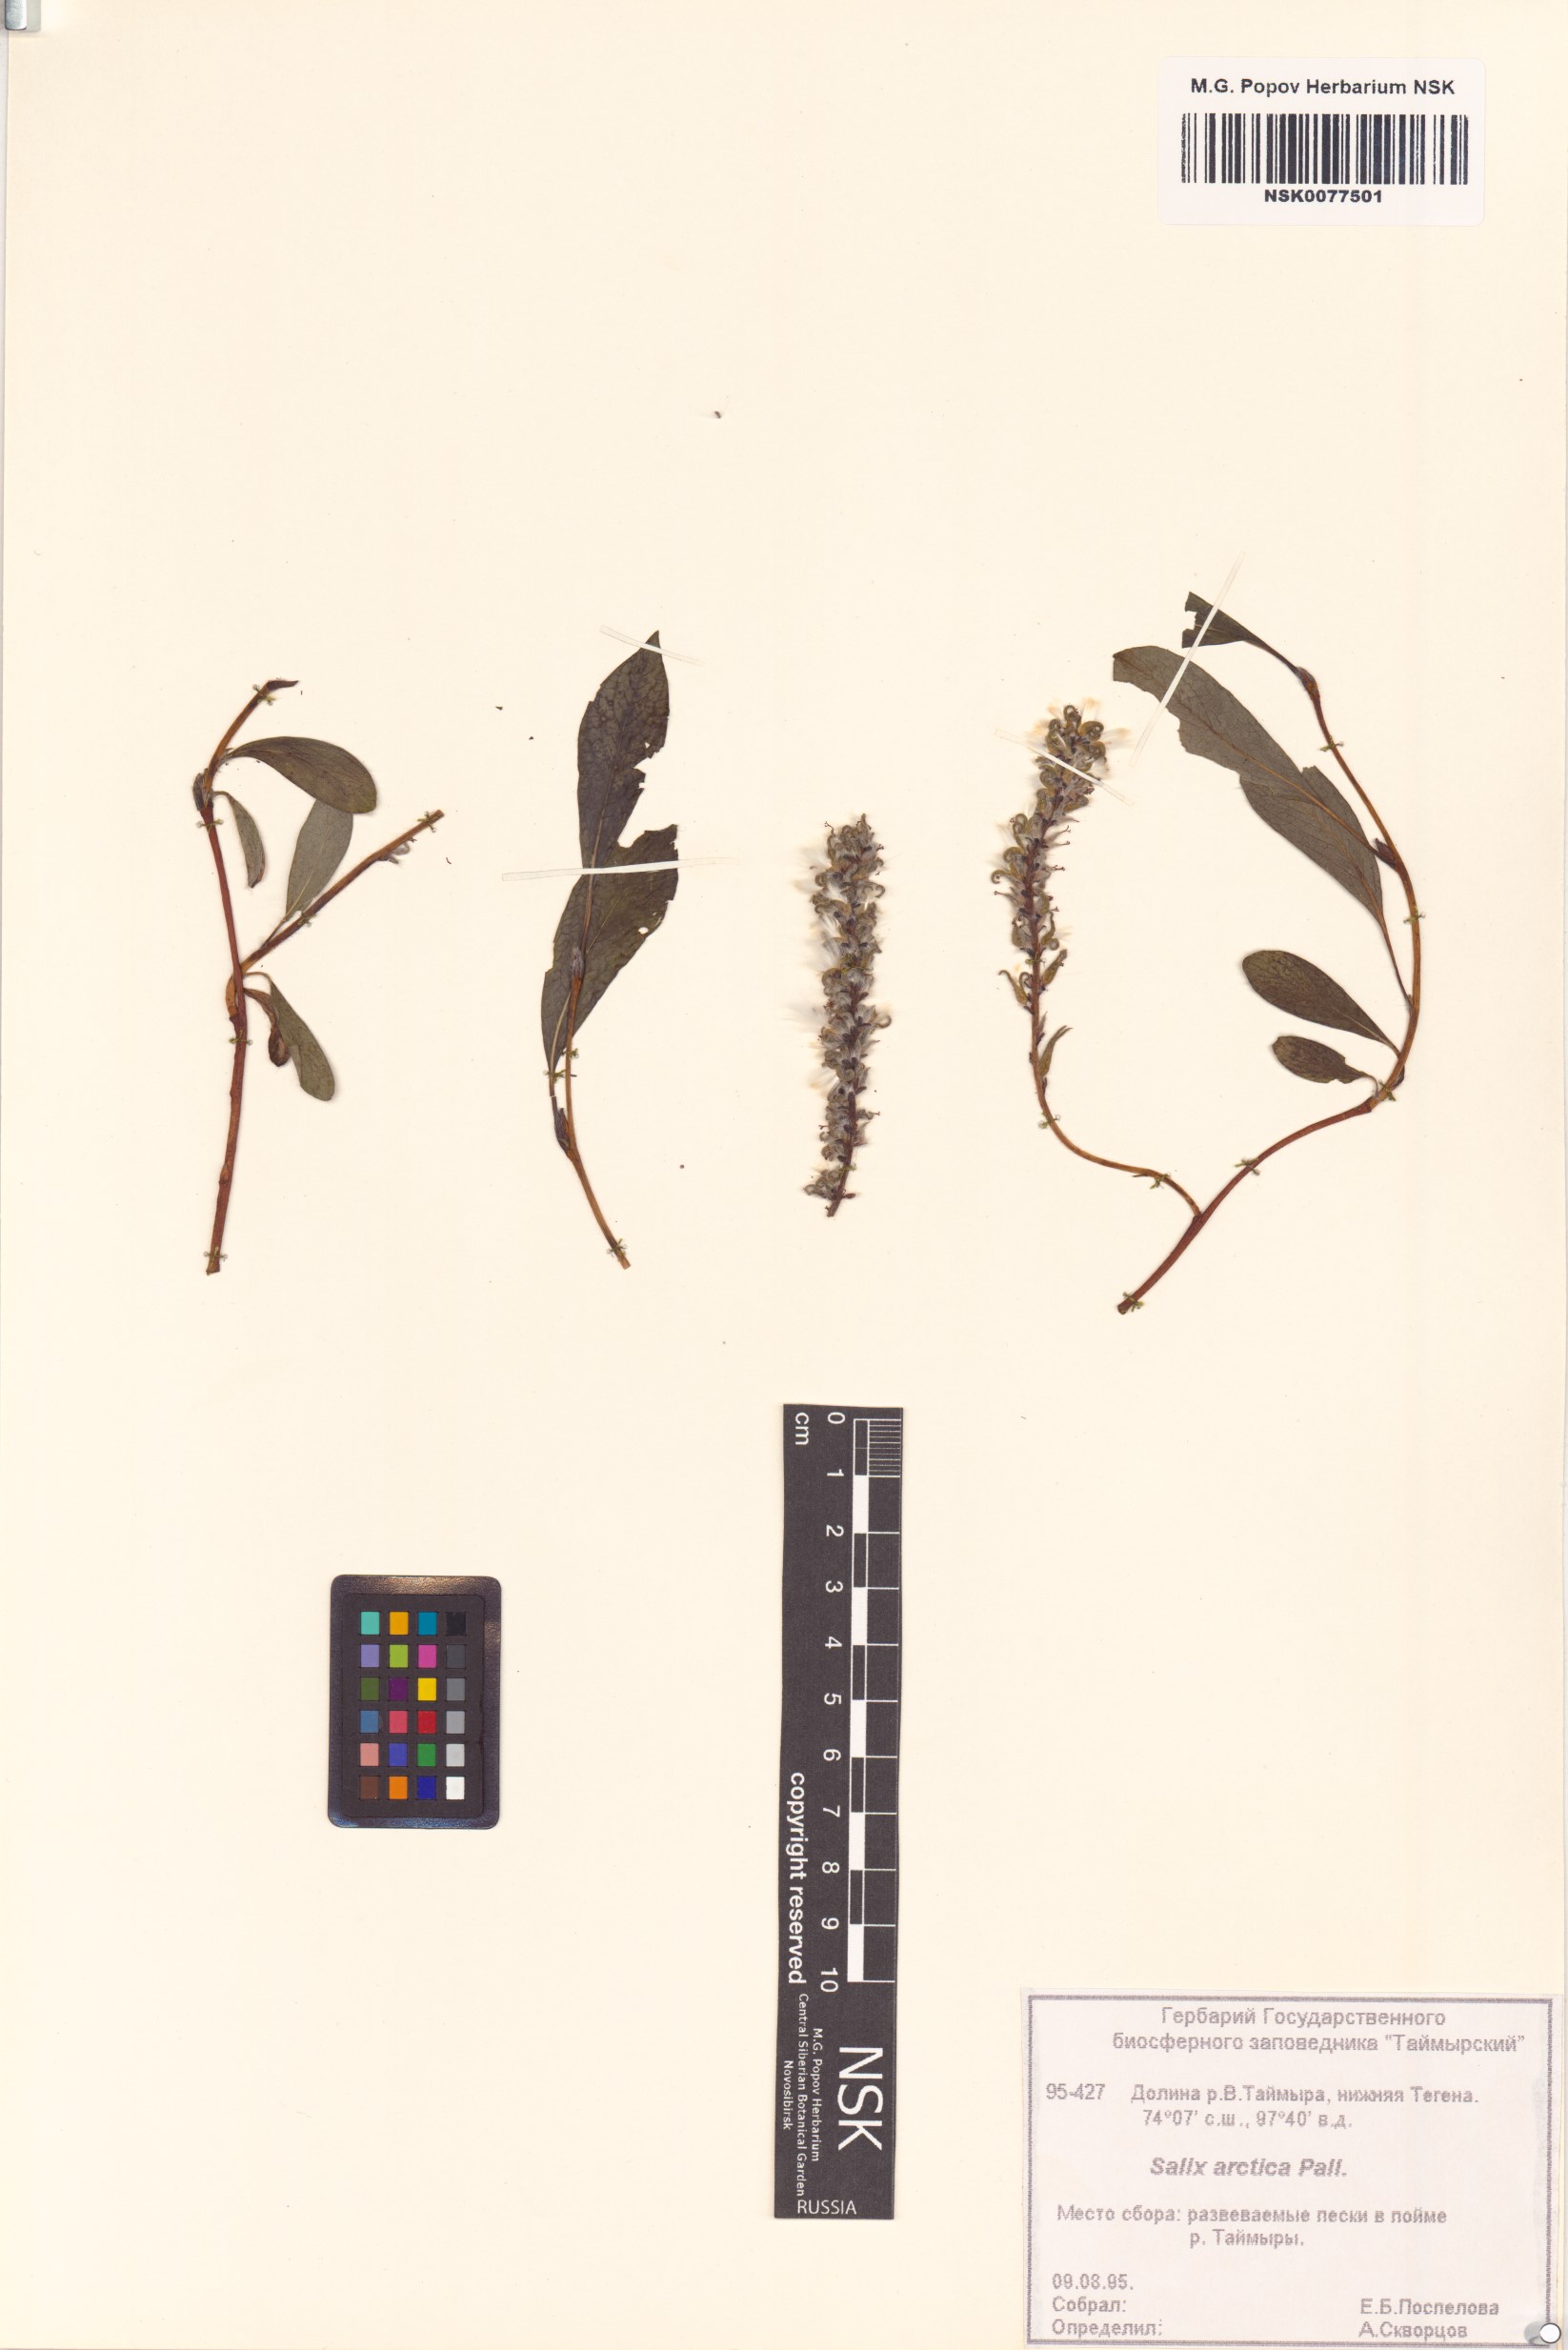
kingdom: Plantae
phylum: Tracheophyta
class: Magnoliopsida
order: Malpighiales
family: Salicaceae
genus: Salix
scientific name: Salix arctica
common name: Arctic willow
